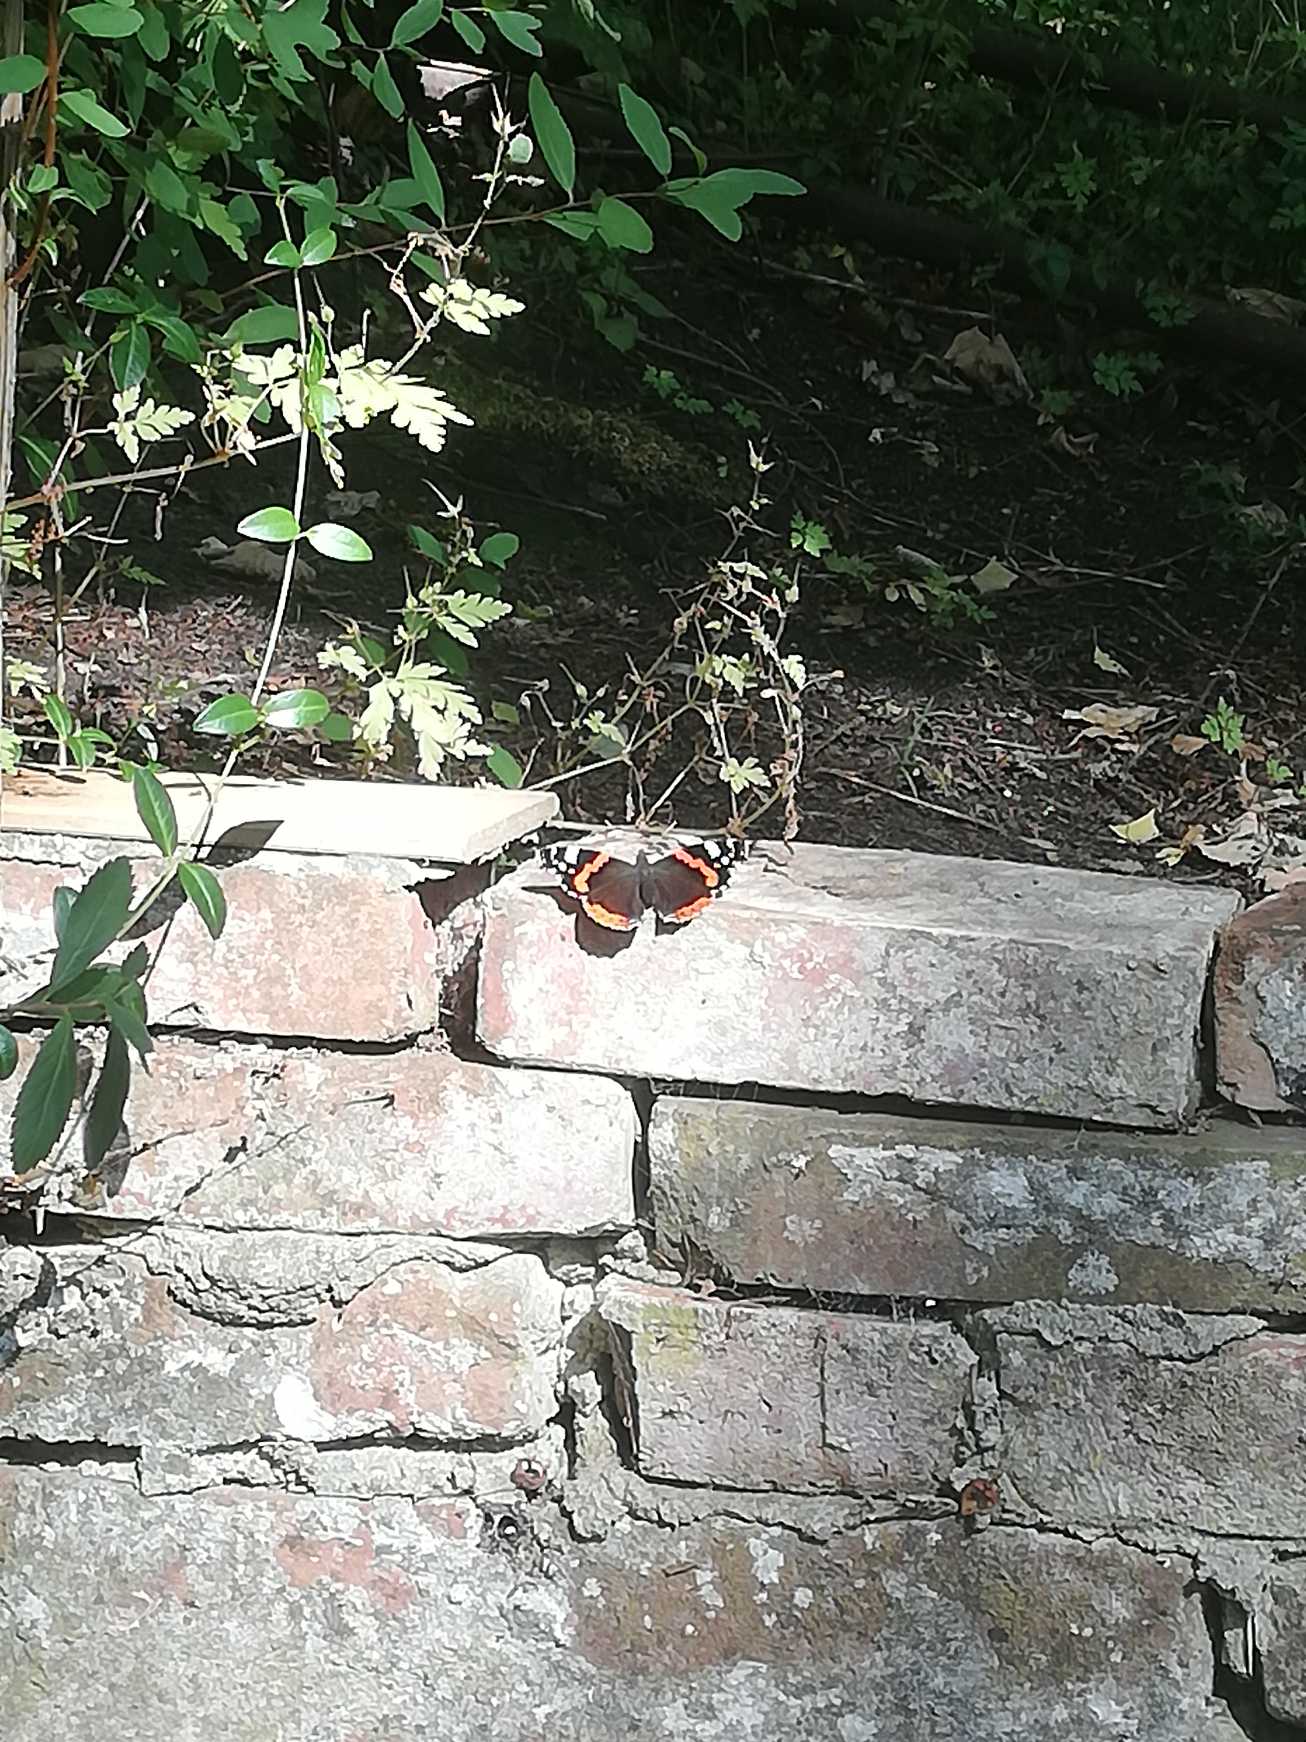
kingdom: Animalia
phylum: Arthropoda
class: Insecta
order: Lepidoptera
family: Nymphalidae
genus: Vanessa
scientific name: Vanessa atalanta
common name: Admiral
